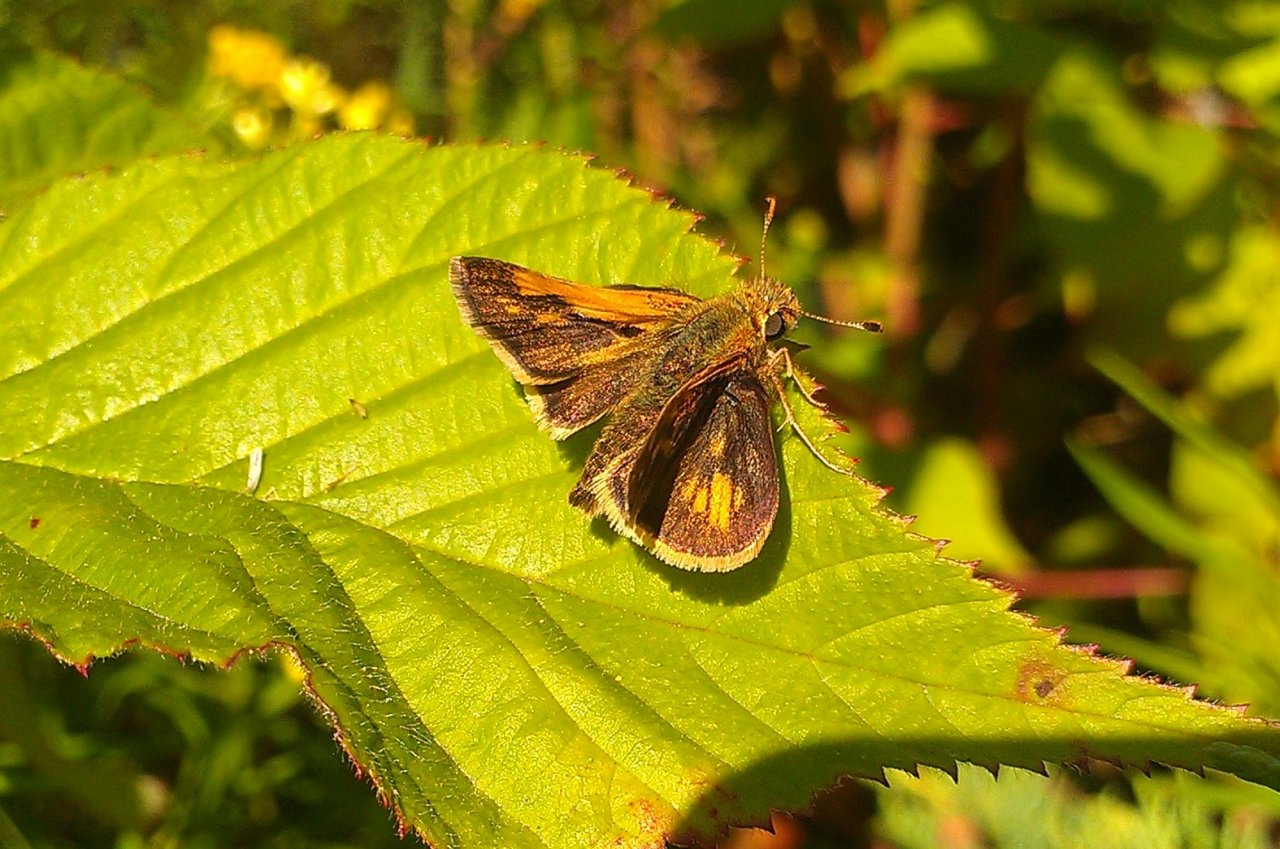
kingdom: Animalia
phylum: Arthropoda
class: Insecta
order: Lepidoptera
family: Hesperiidae
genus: Polites
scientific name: Polites coras
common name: Peck's Skipper
